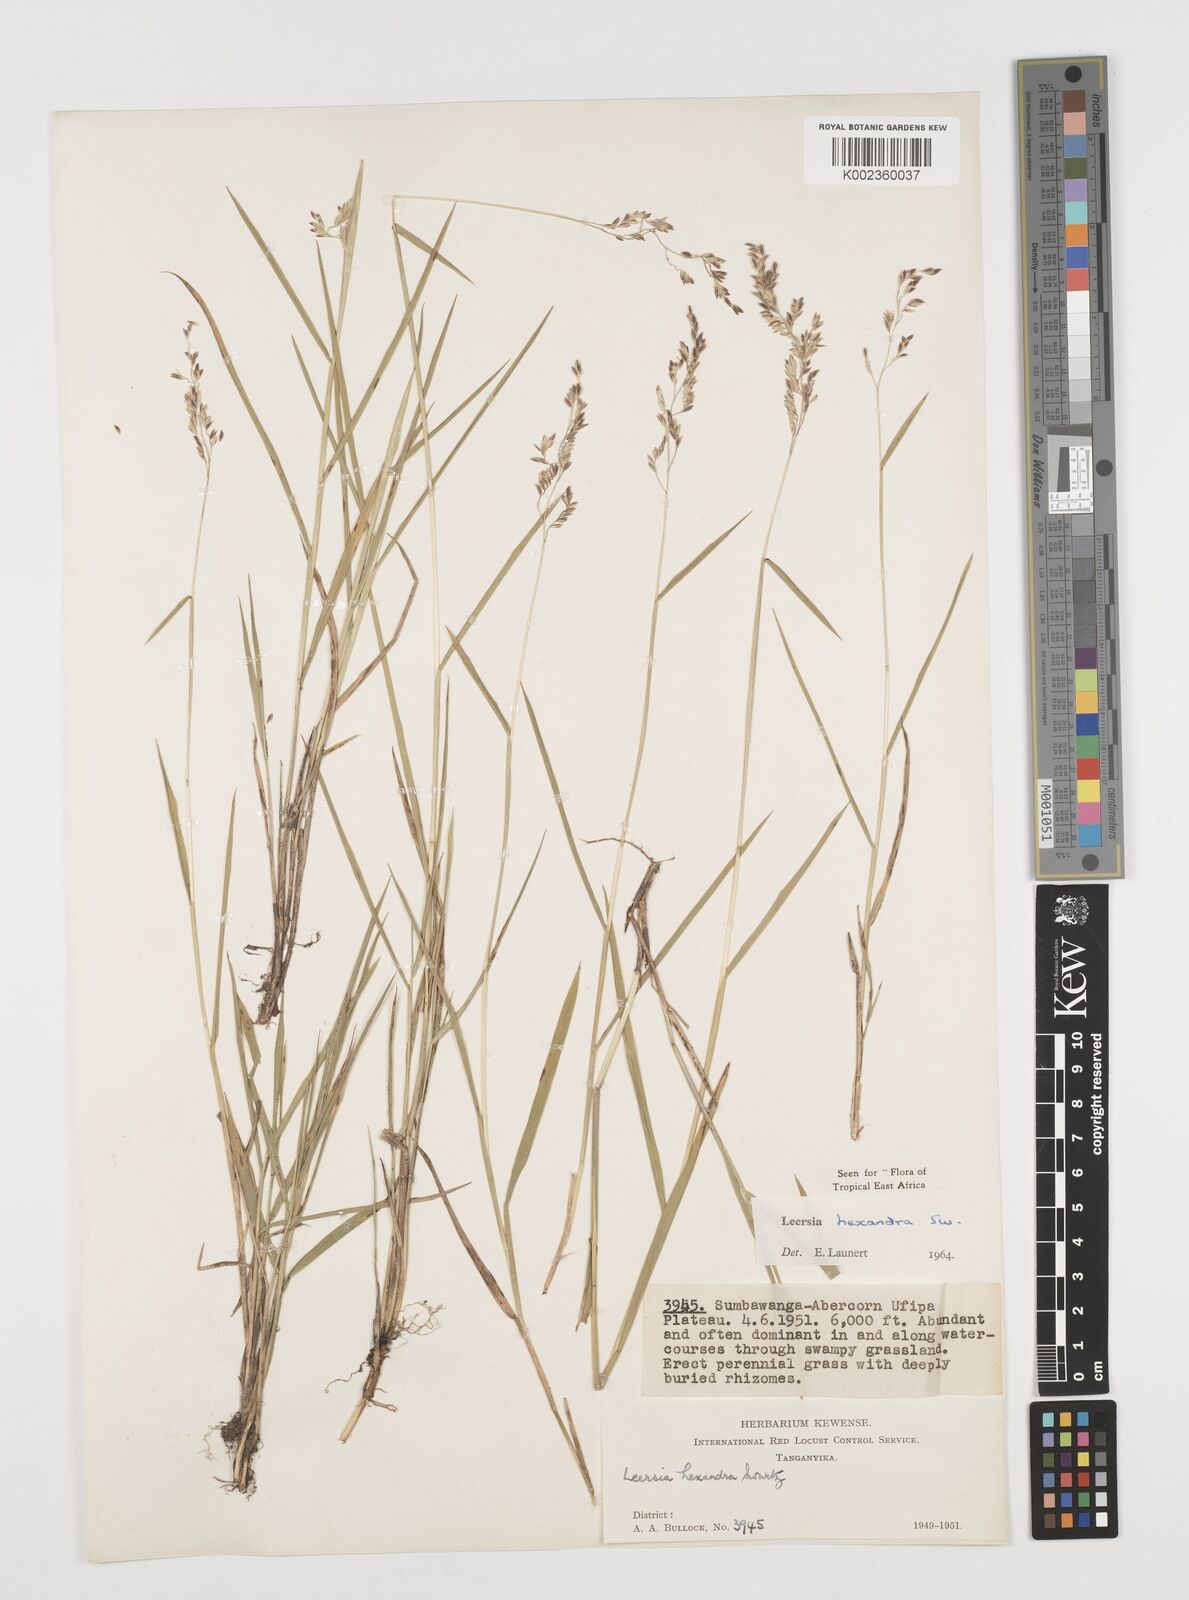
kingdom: Plantae
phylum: Tracheophyta
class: Liliopsida
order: Poales
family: Poaceae
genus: Leersia
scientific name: Leersia hexandra
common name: Southern cut grass
